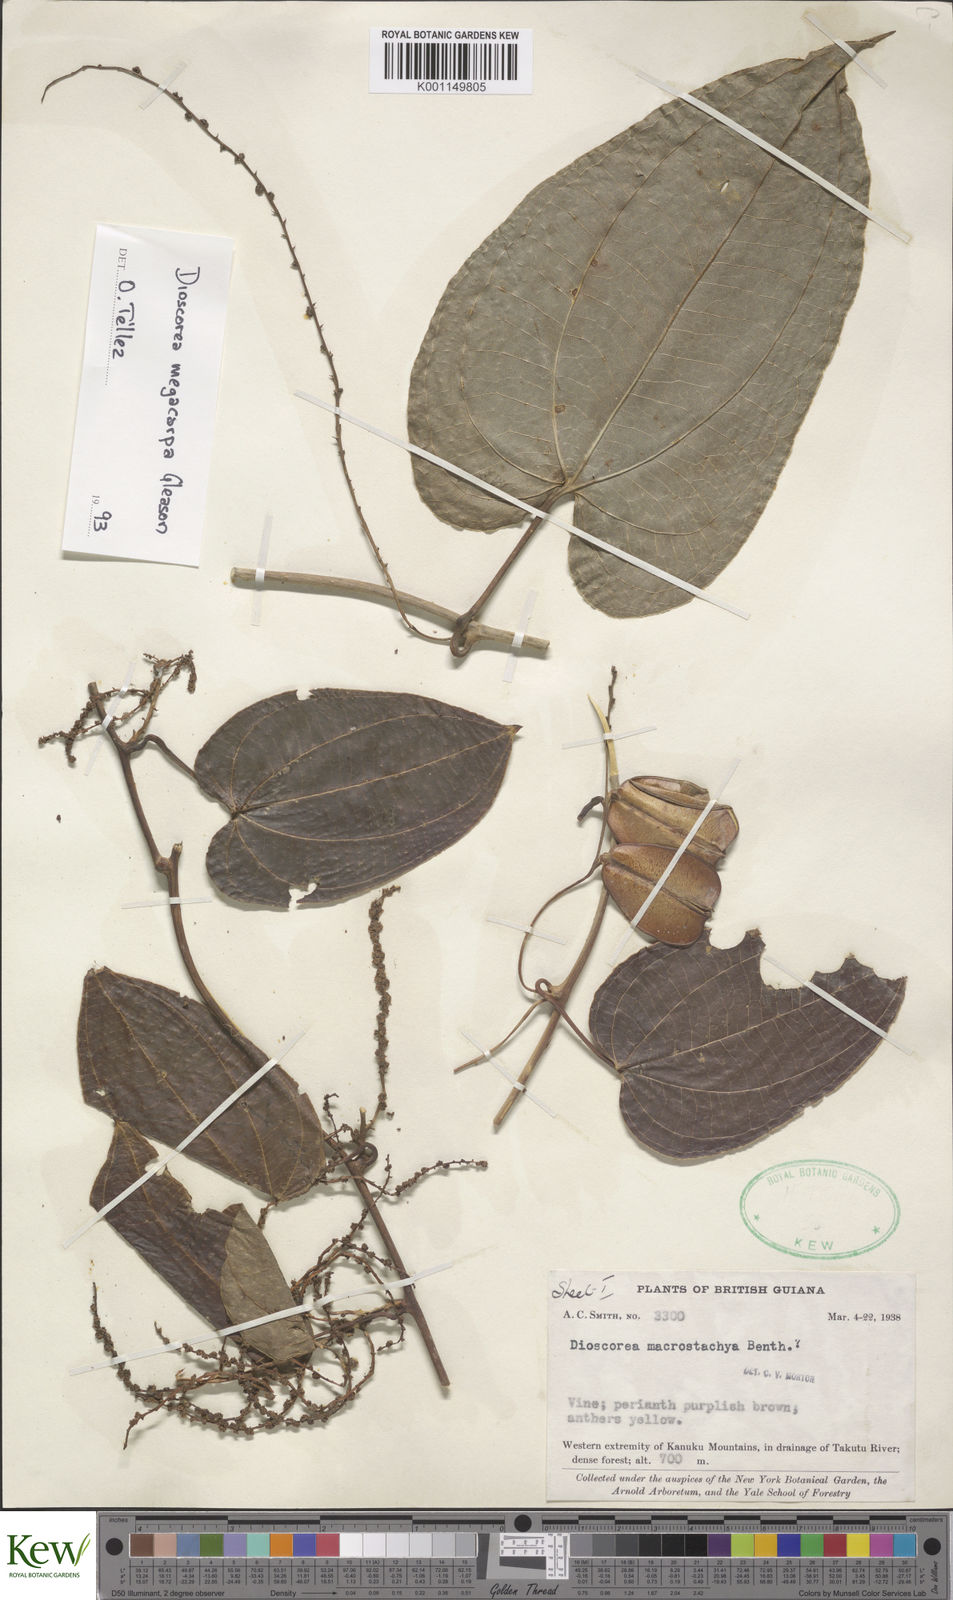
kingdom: Plantae
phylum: Tracheophyta
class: Liliopsida
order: Dioscoreales
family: Dioscoreaceae
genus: Dioscorea
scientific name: Dioscorea guianensis
